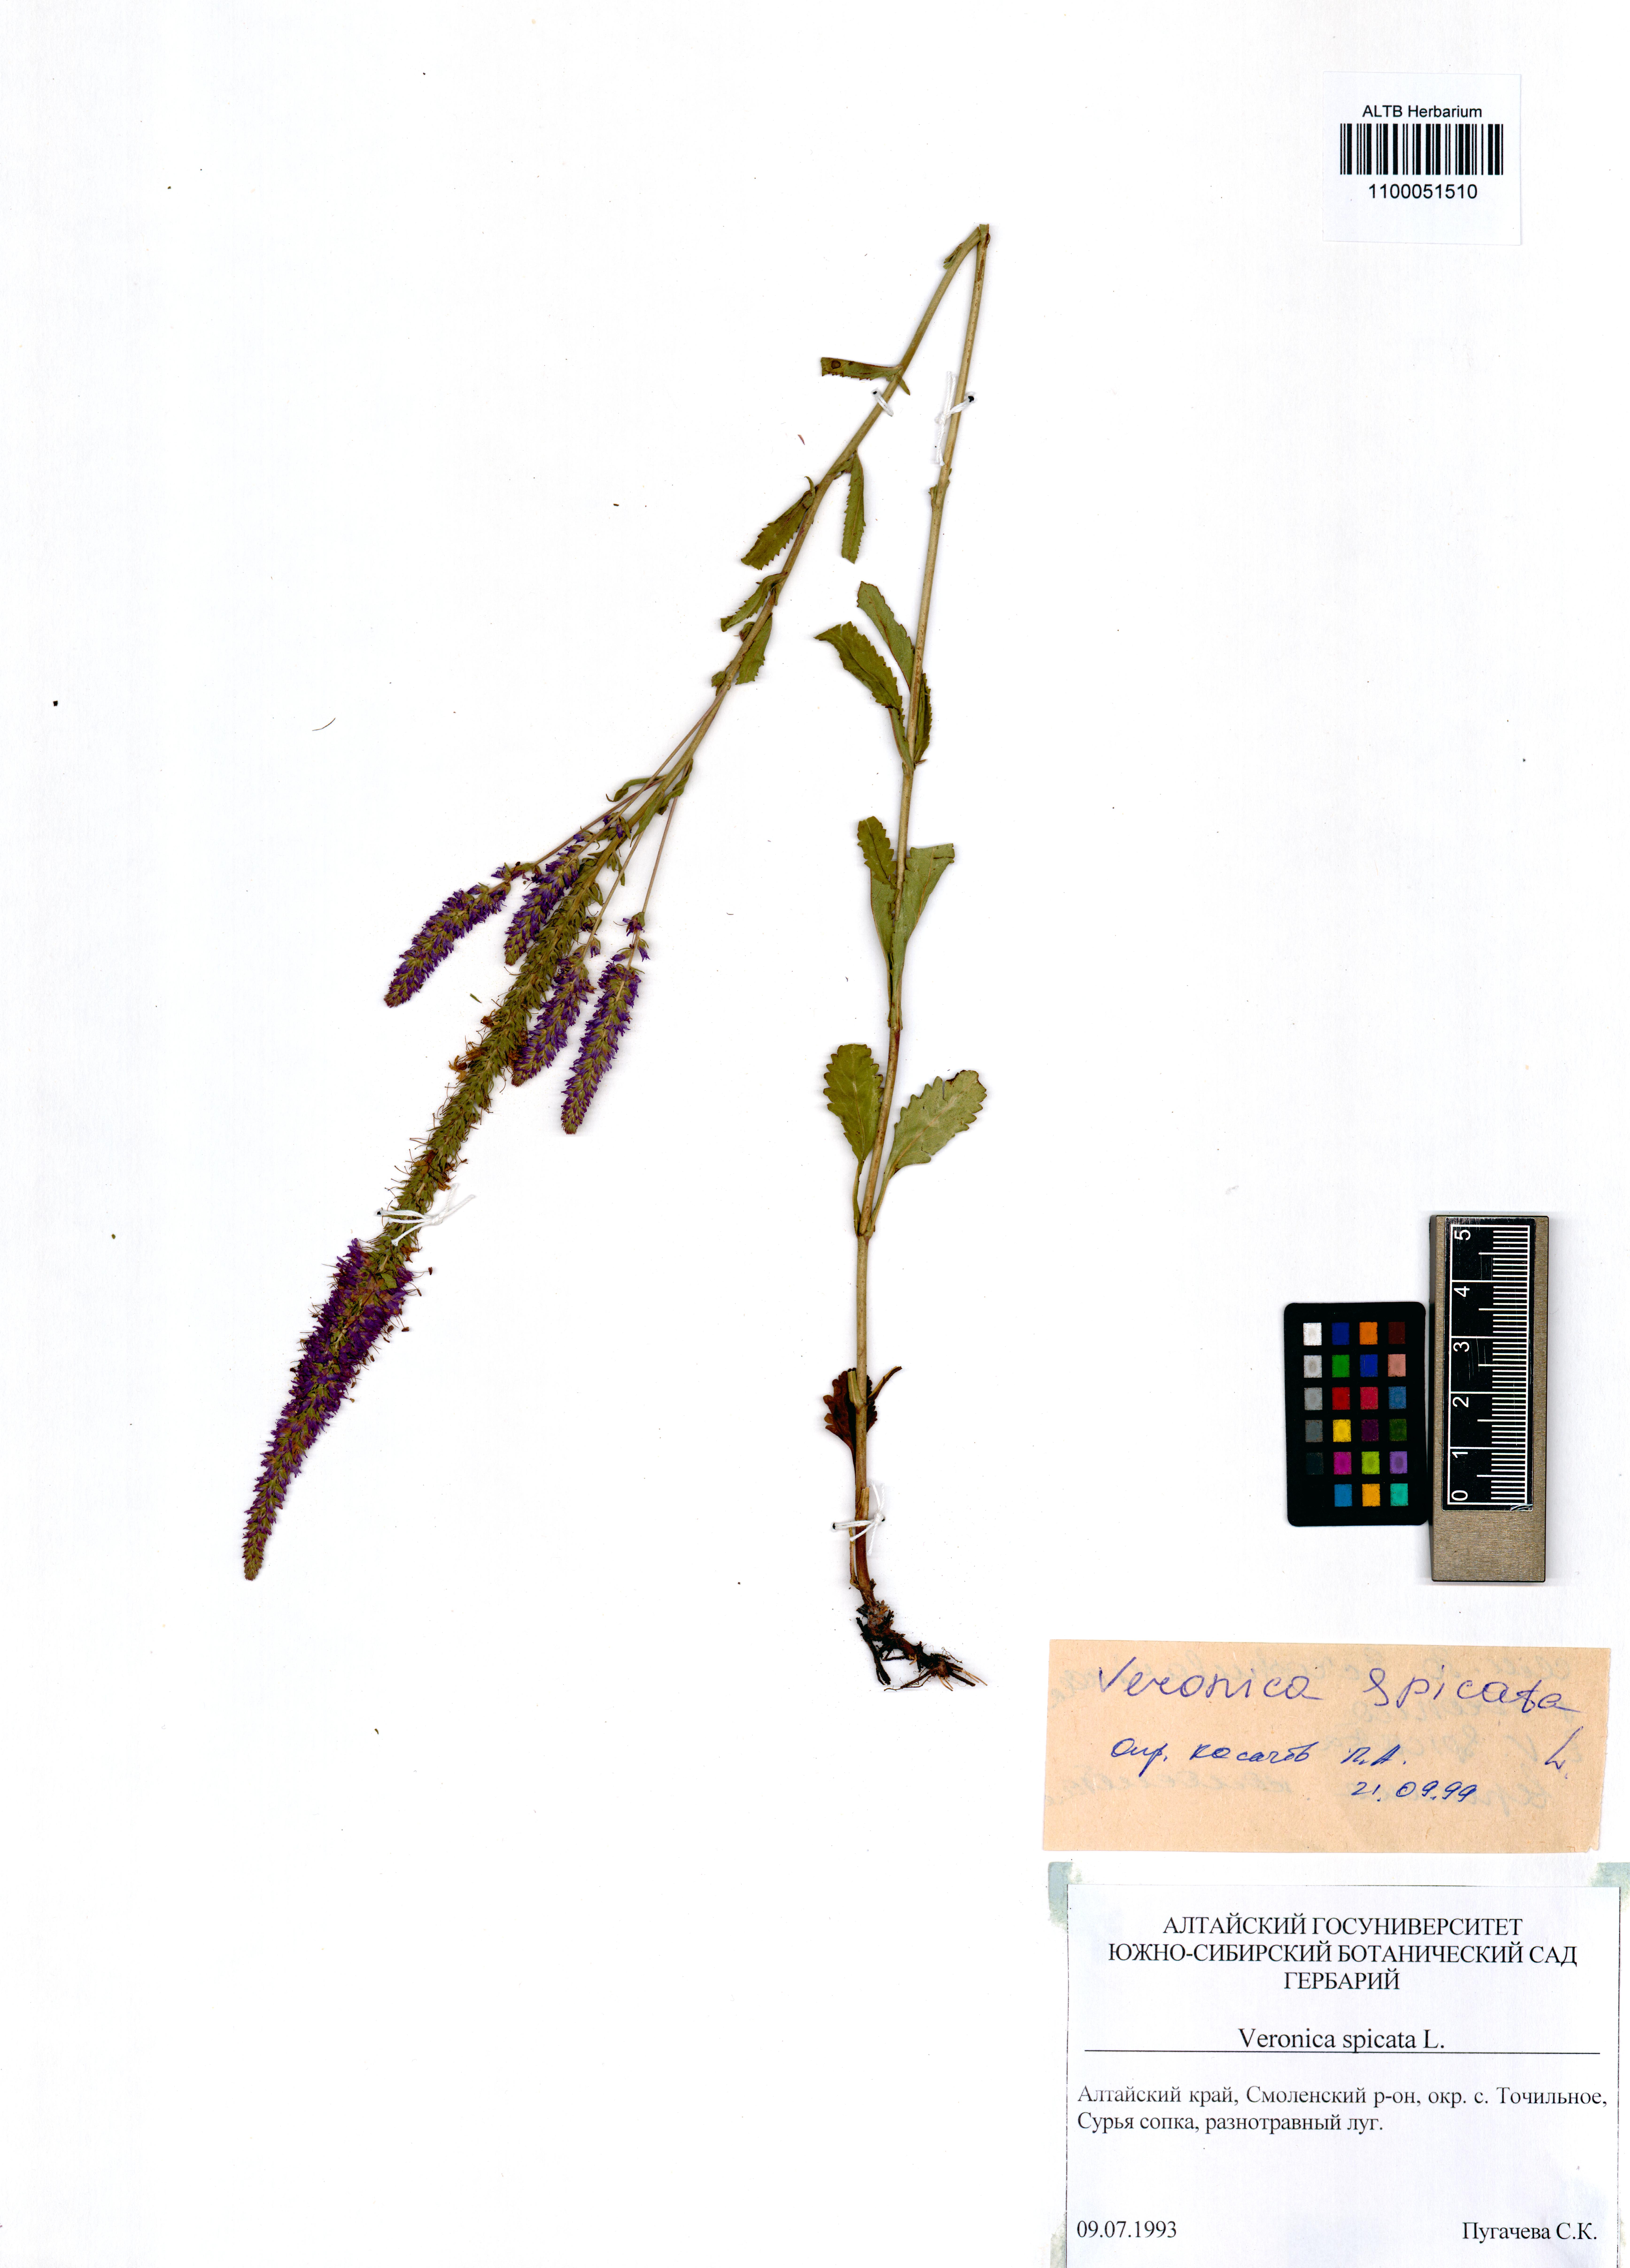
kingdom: Plantae
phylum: Tracheophyta
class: Magnoliopsida
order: Lamiales
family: Plantaginaceae
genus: Veronica
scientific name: Veronica spicata
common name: Spiked speedwell
